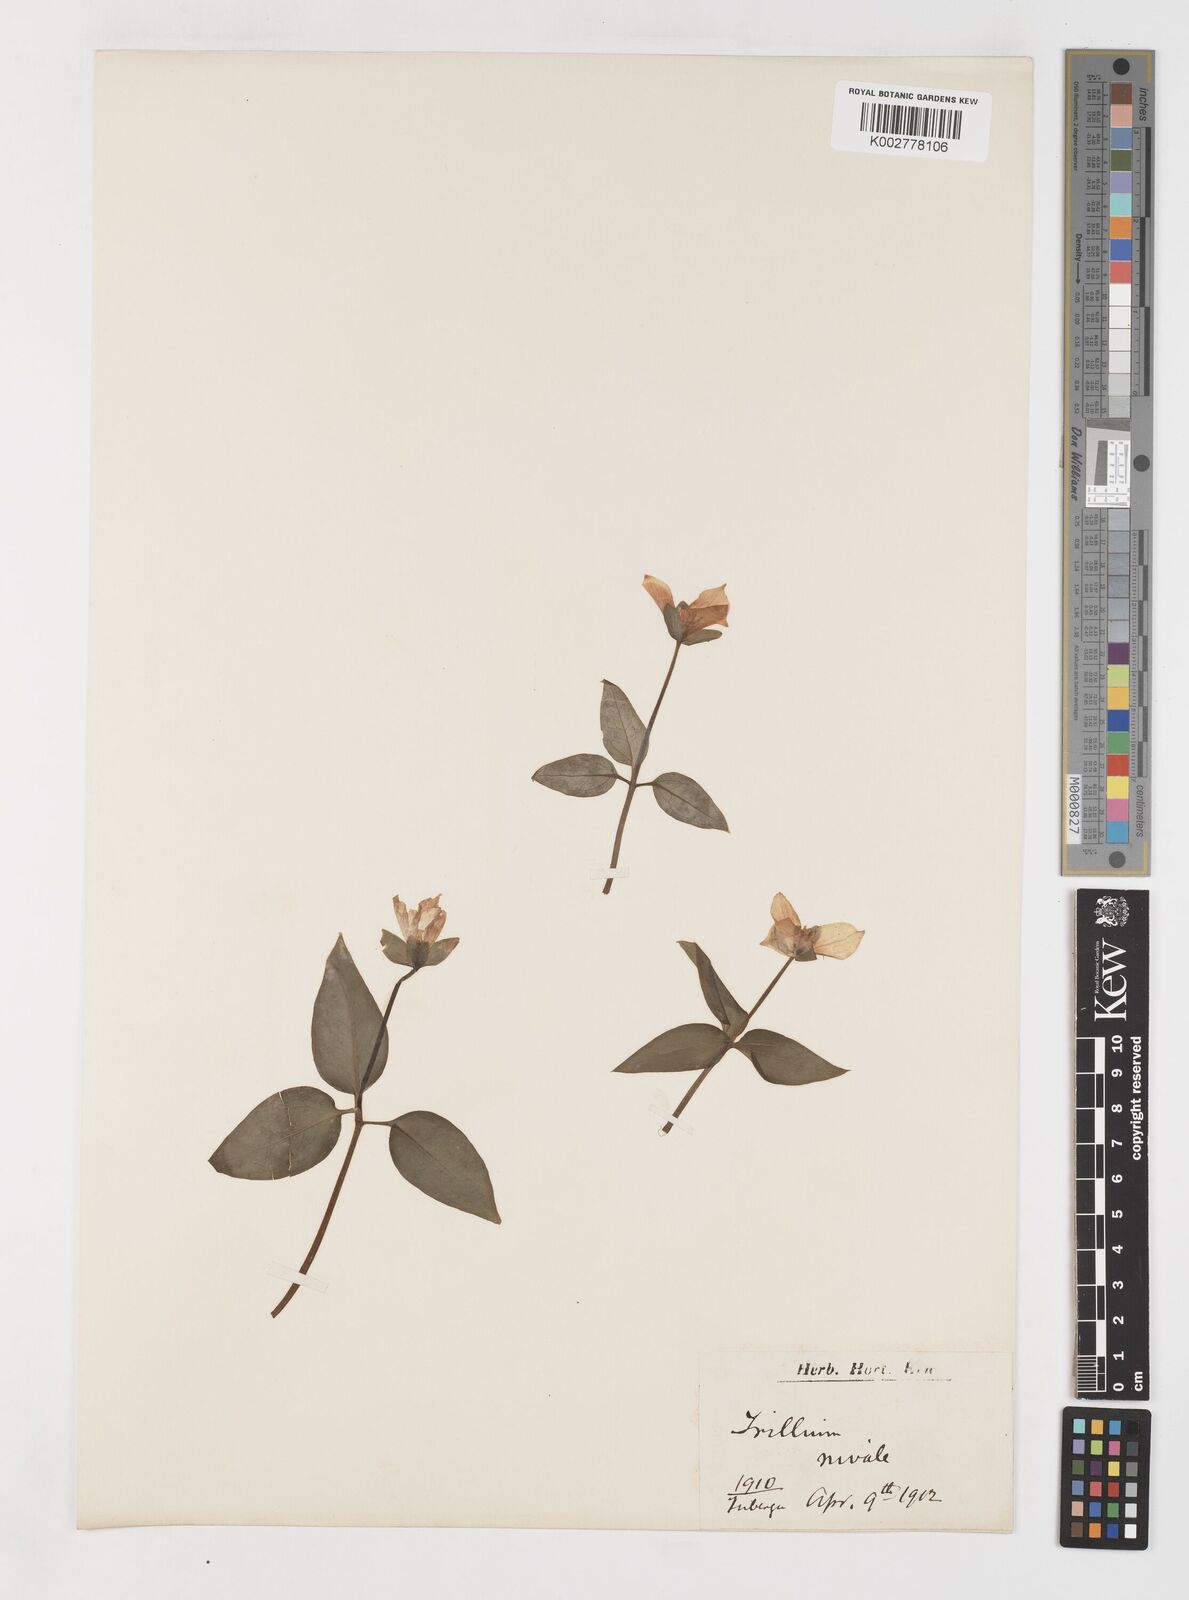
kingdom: Plantae
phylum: Tracheophyta
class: Liliopsida
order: Liliales
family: Melanthiaceae
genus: Pseudotrillium
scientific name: Pseudotrillium rivale
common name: Brook wakerobin
